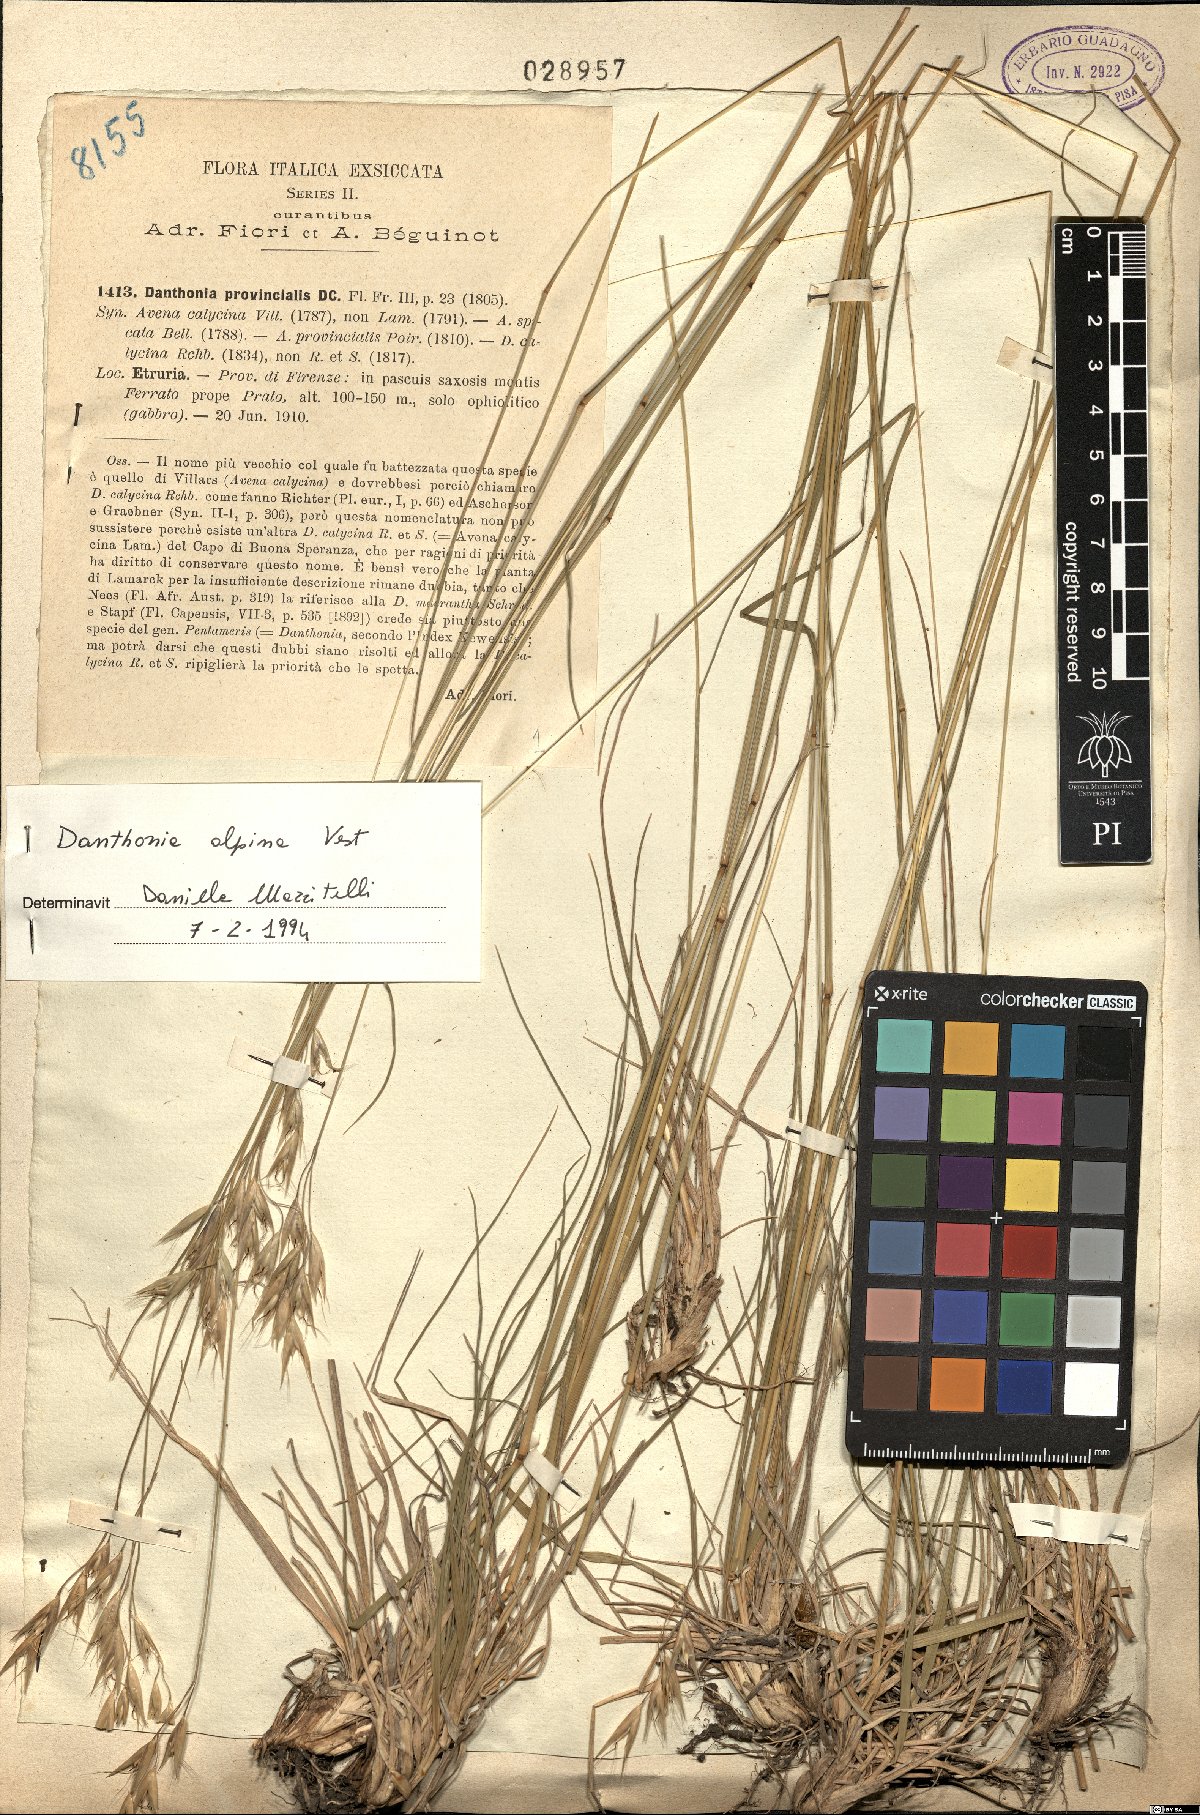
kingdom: Plantae
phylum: Tracheophyta
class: Liliopsida
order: Poales
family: Poaceae
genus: Danthonia
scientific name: Danthonia alpina
